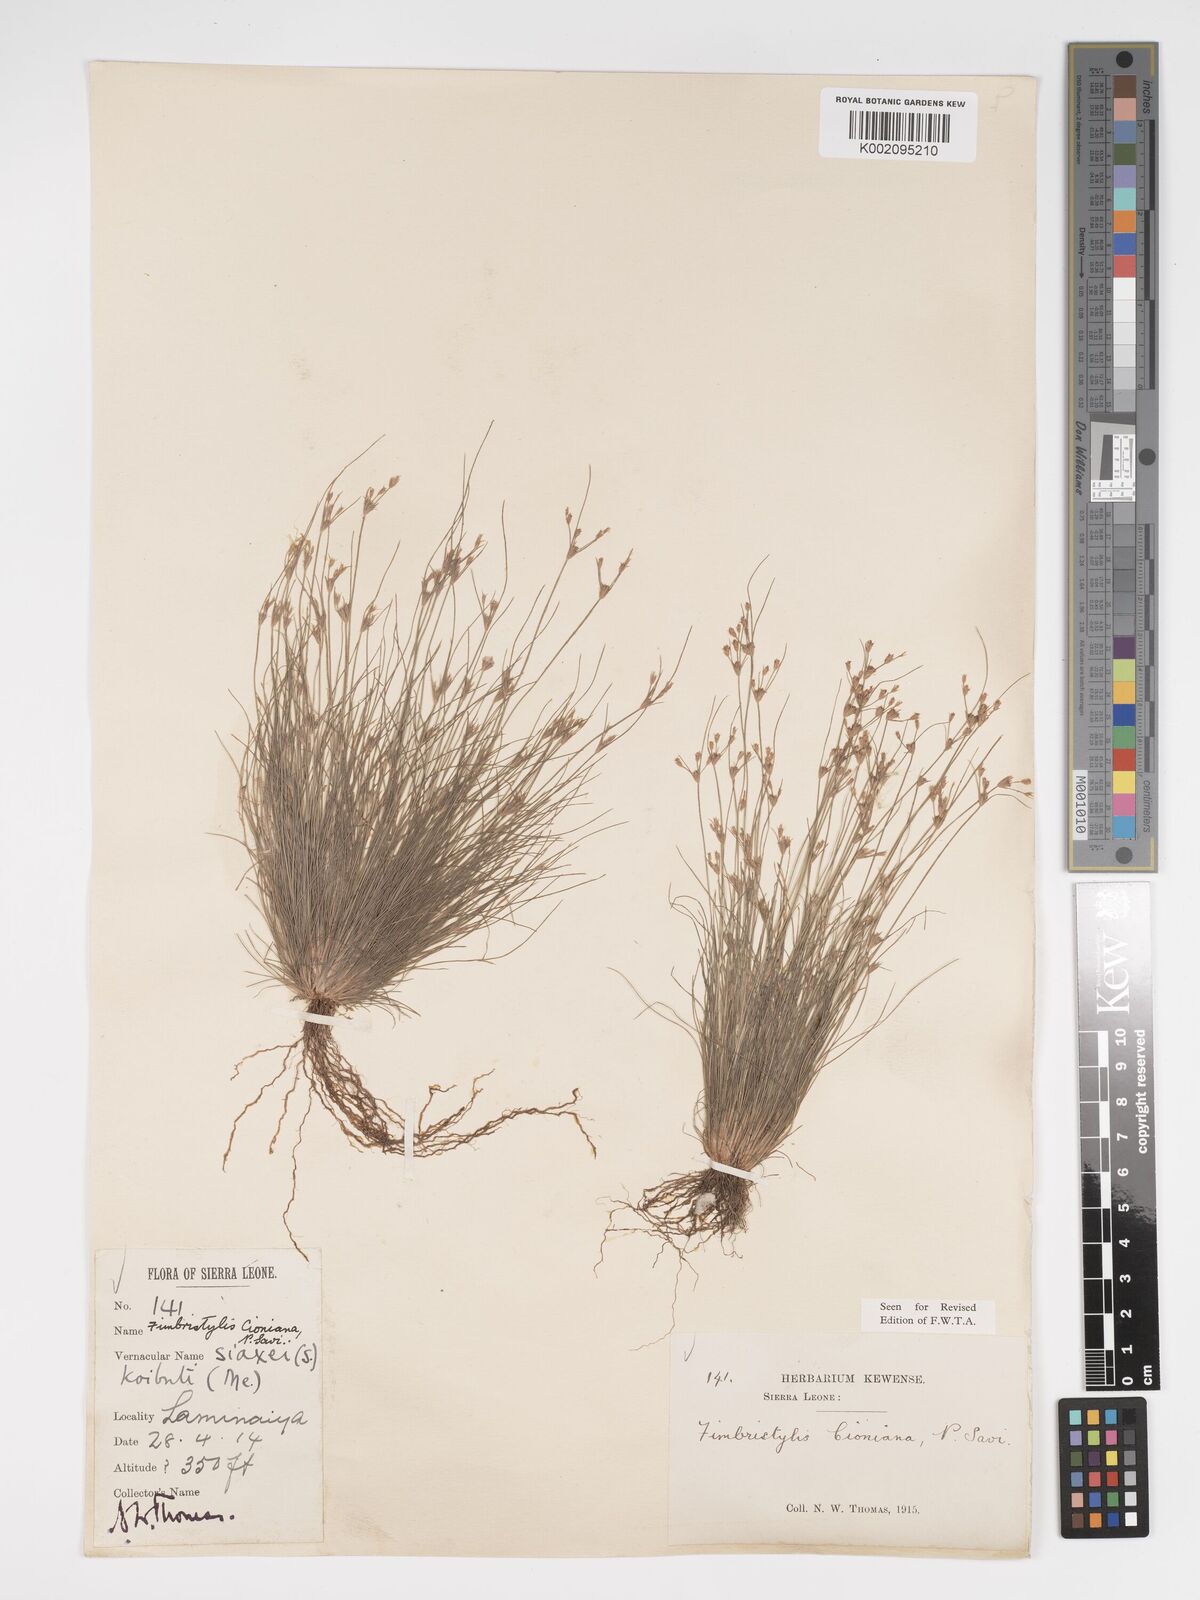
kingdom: Plantae
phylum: Tracheophyta
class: Liliopsida
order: Poales
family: Cyperaceae
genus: Bulbostylis
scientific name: Bulbostylis cioniana
